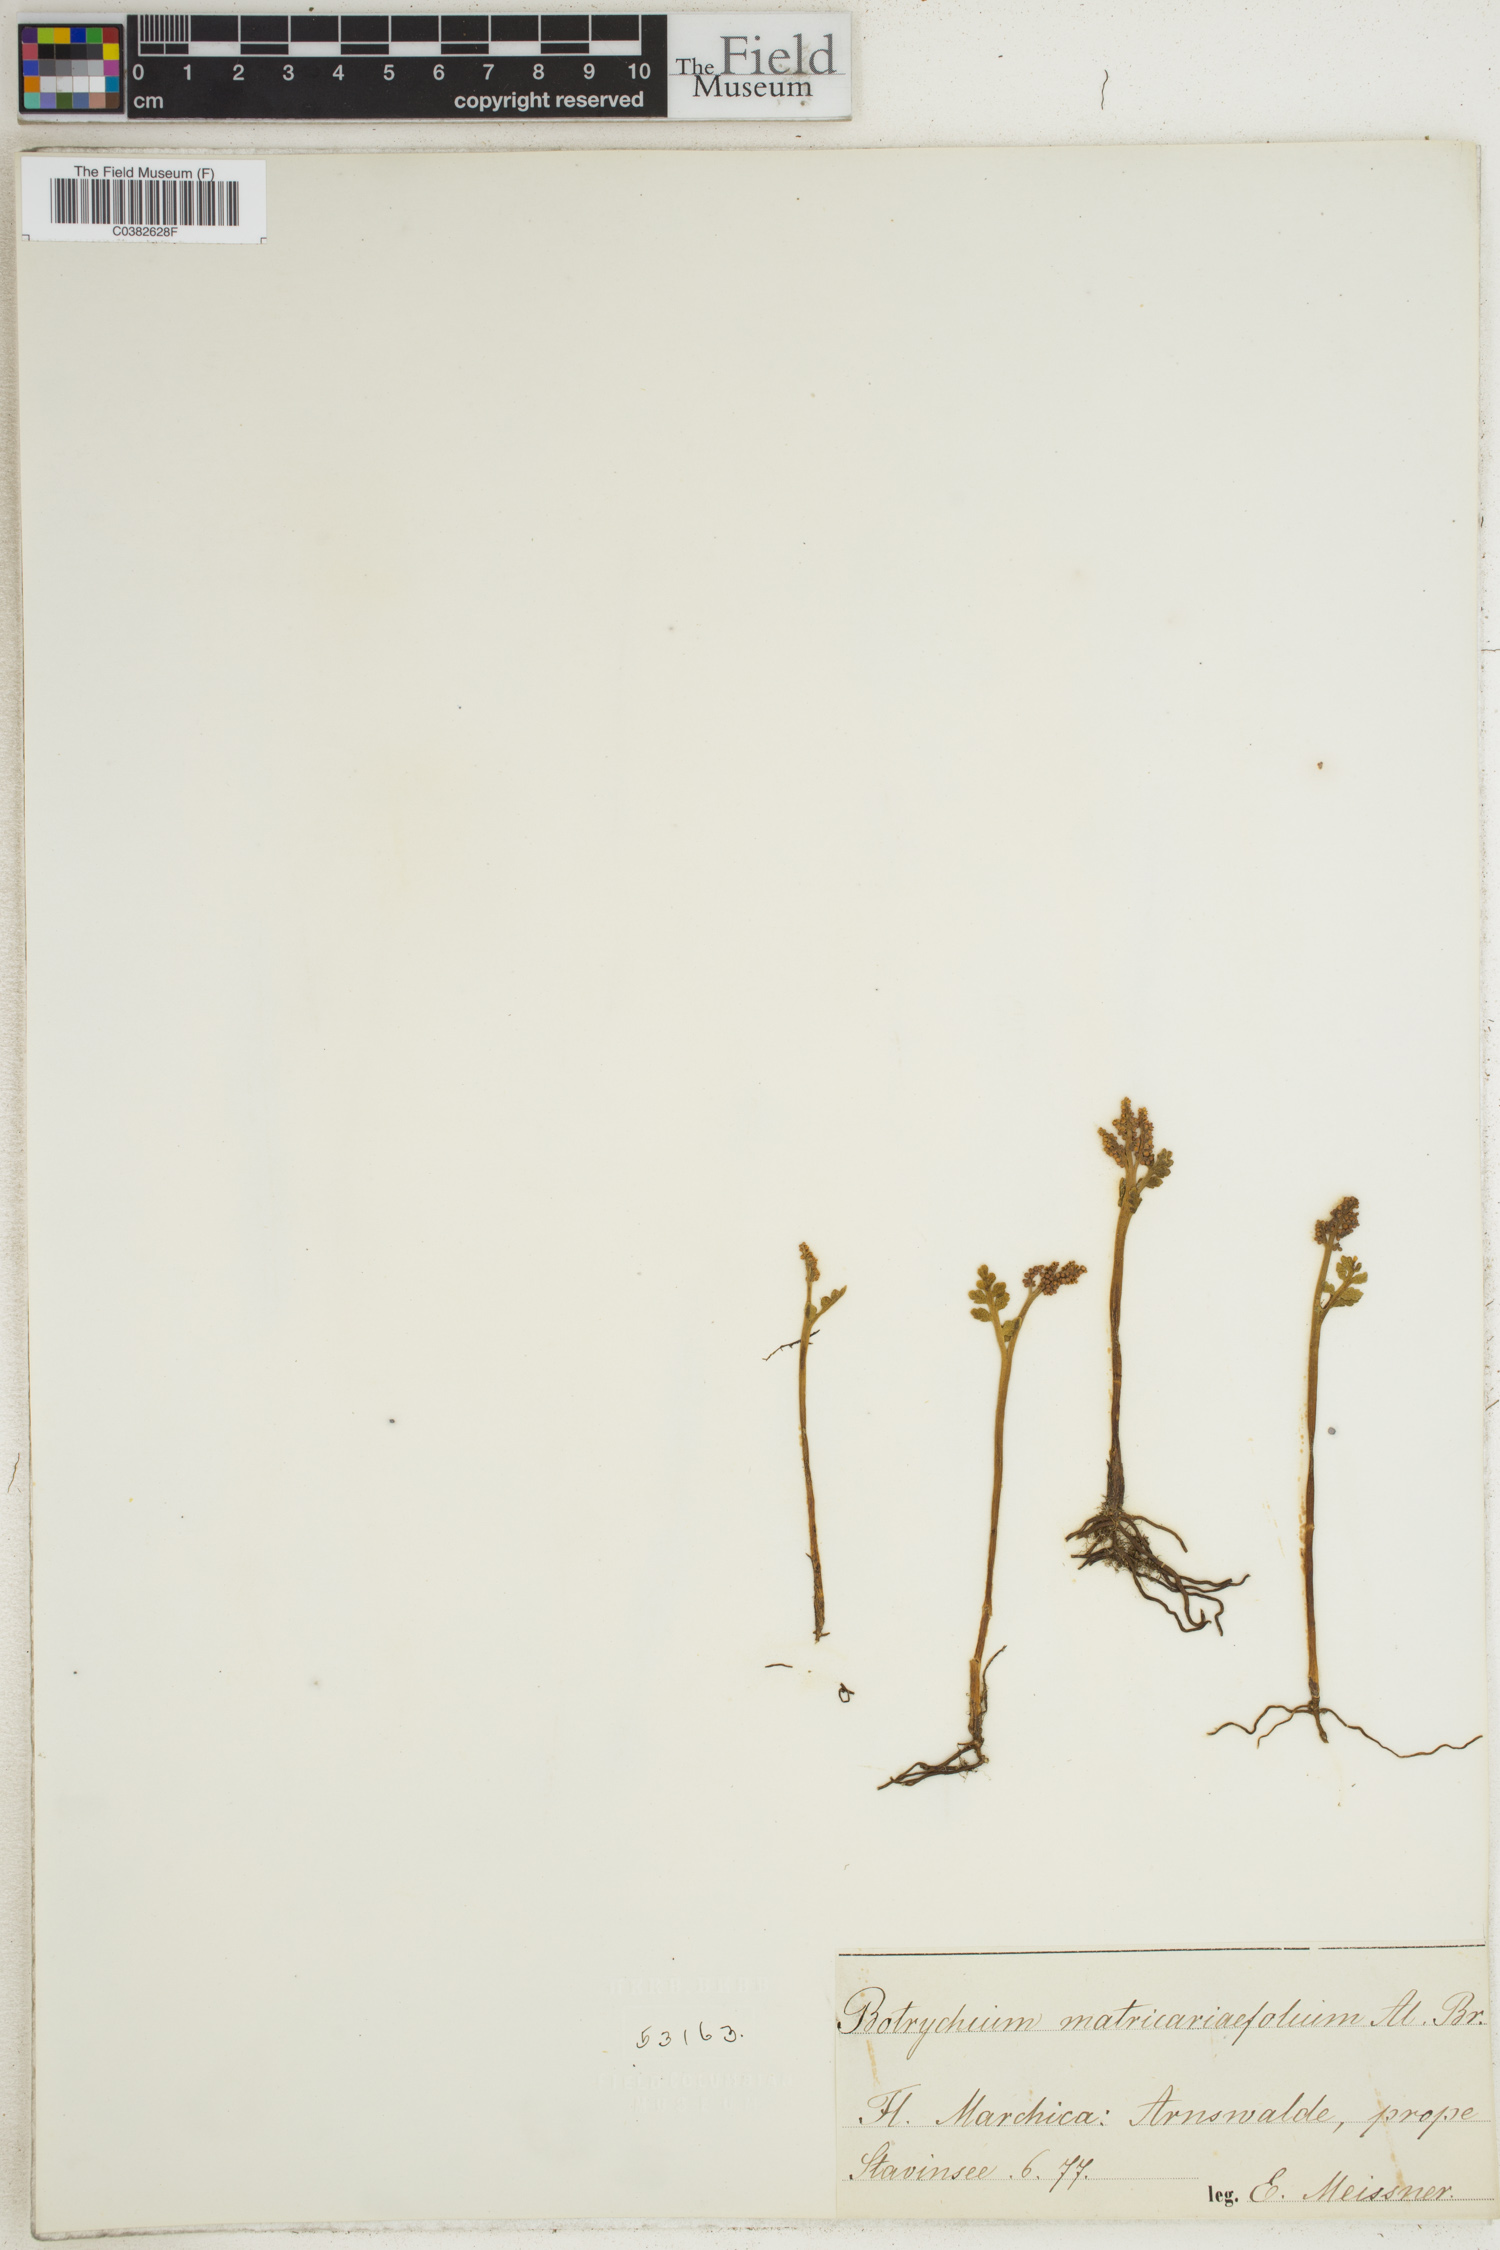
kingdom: Plantae
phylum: Tracheophyta
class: Polypodiopsida
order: Ophioglossales
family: Ophioglossaceae
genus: Botrychium
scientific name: Botrychium matricariifolium
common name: Branched moonwort
